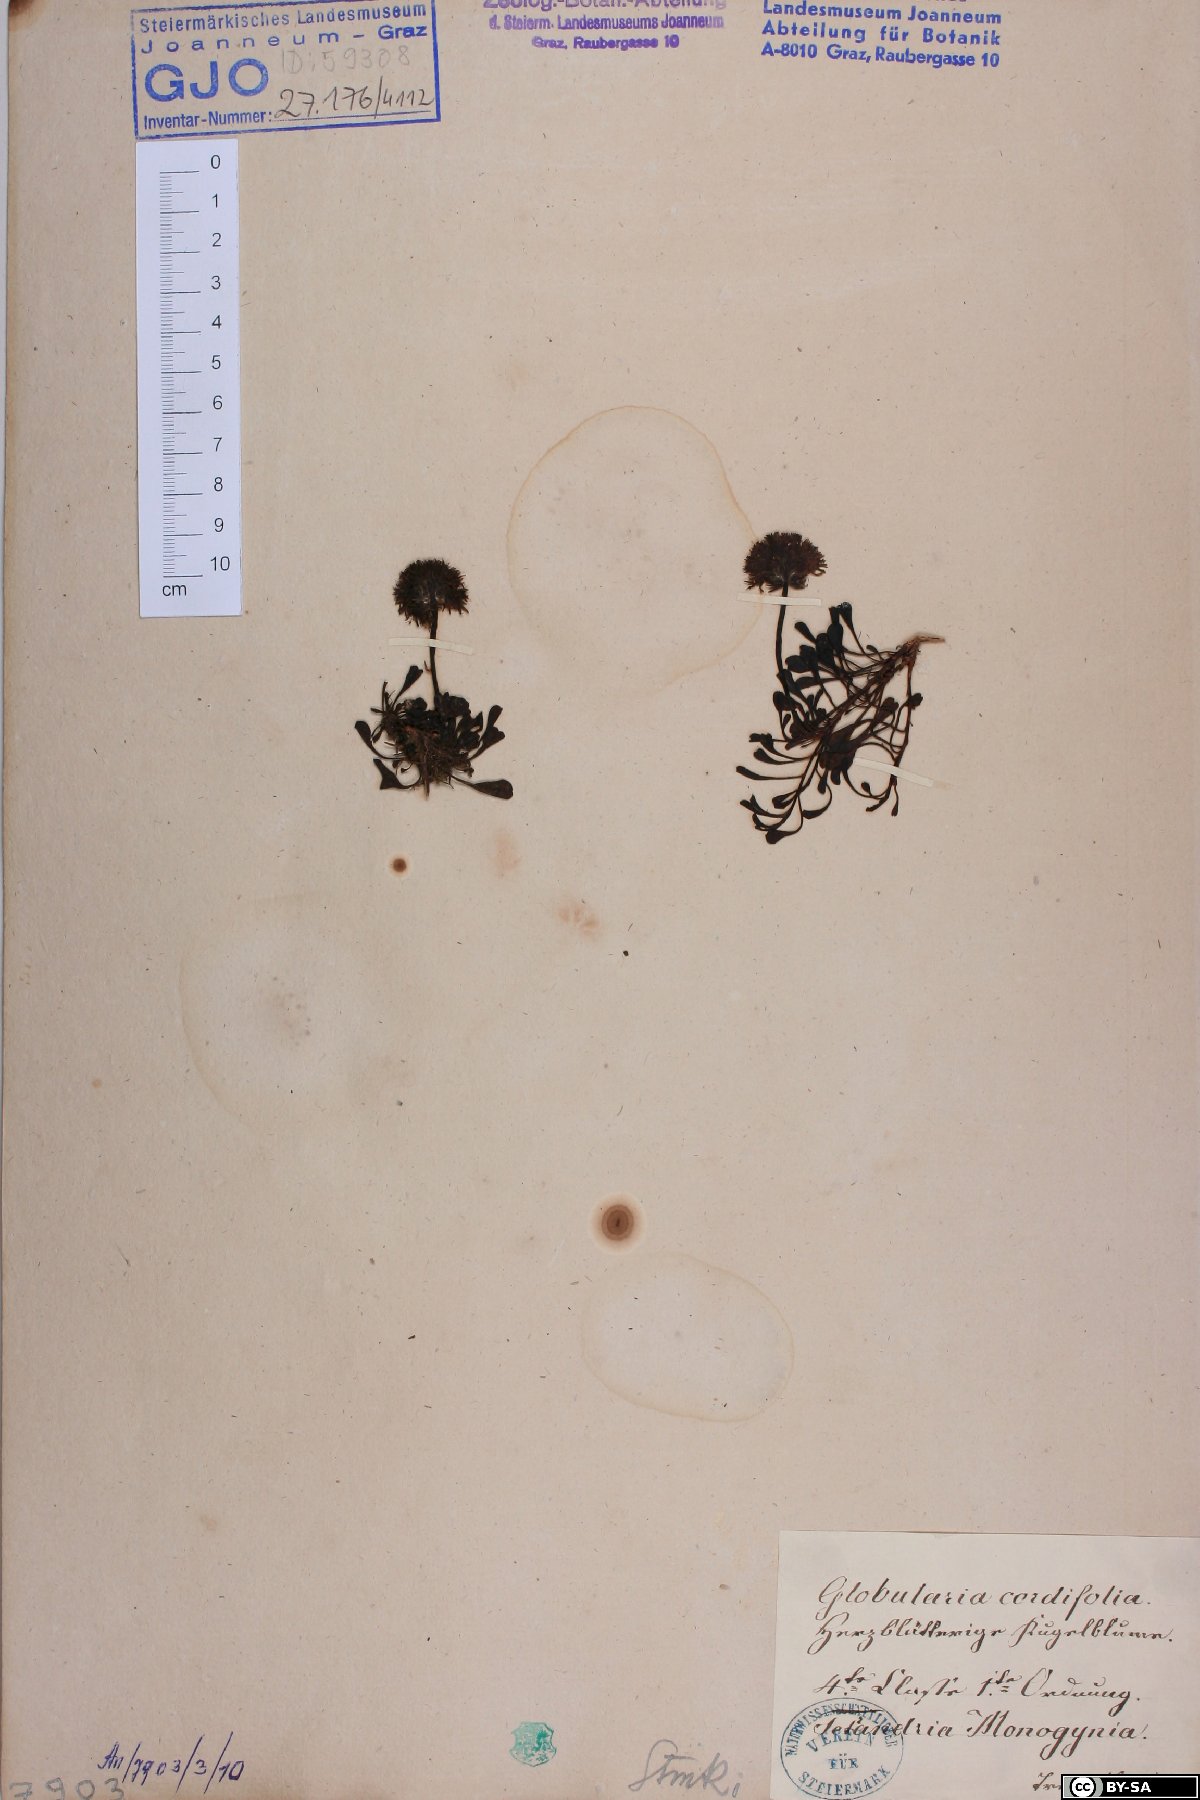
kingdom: Plantae
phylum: Tracheophyta
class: Magnoliopsida
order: Lamiales
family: Plantaginaceae
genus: Globularia
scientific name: Globularia cordifolia
